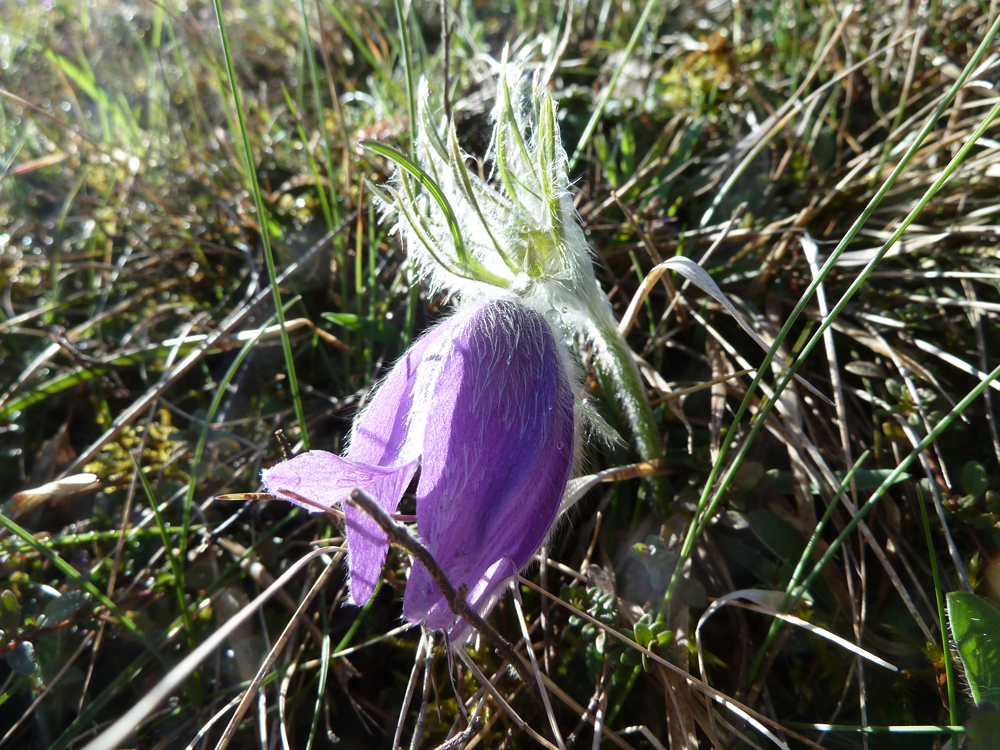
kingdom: Plantae
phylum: Tracheophyta
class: Magnoliopsida
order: Ranunculales
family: Ranunculaceae
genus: Pulsatilla
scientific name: Pulsatilla vulgaris
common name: Pasqueflower
